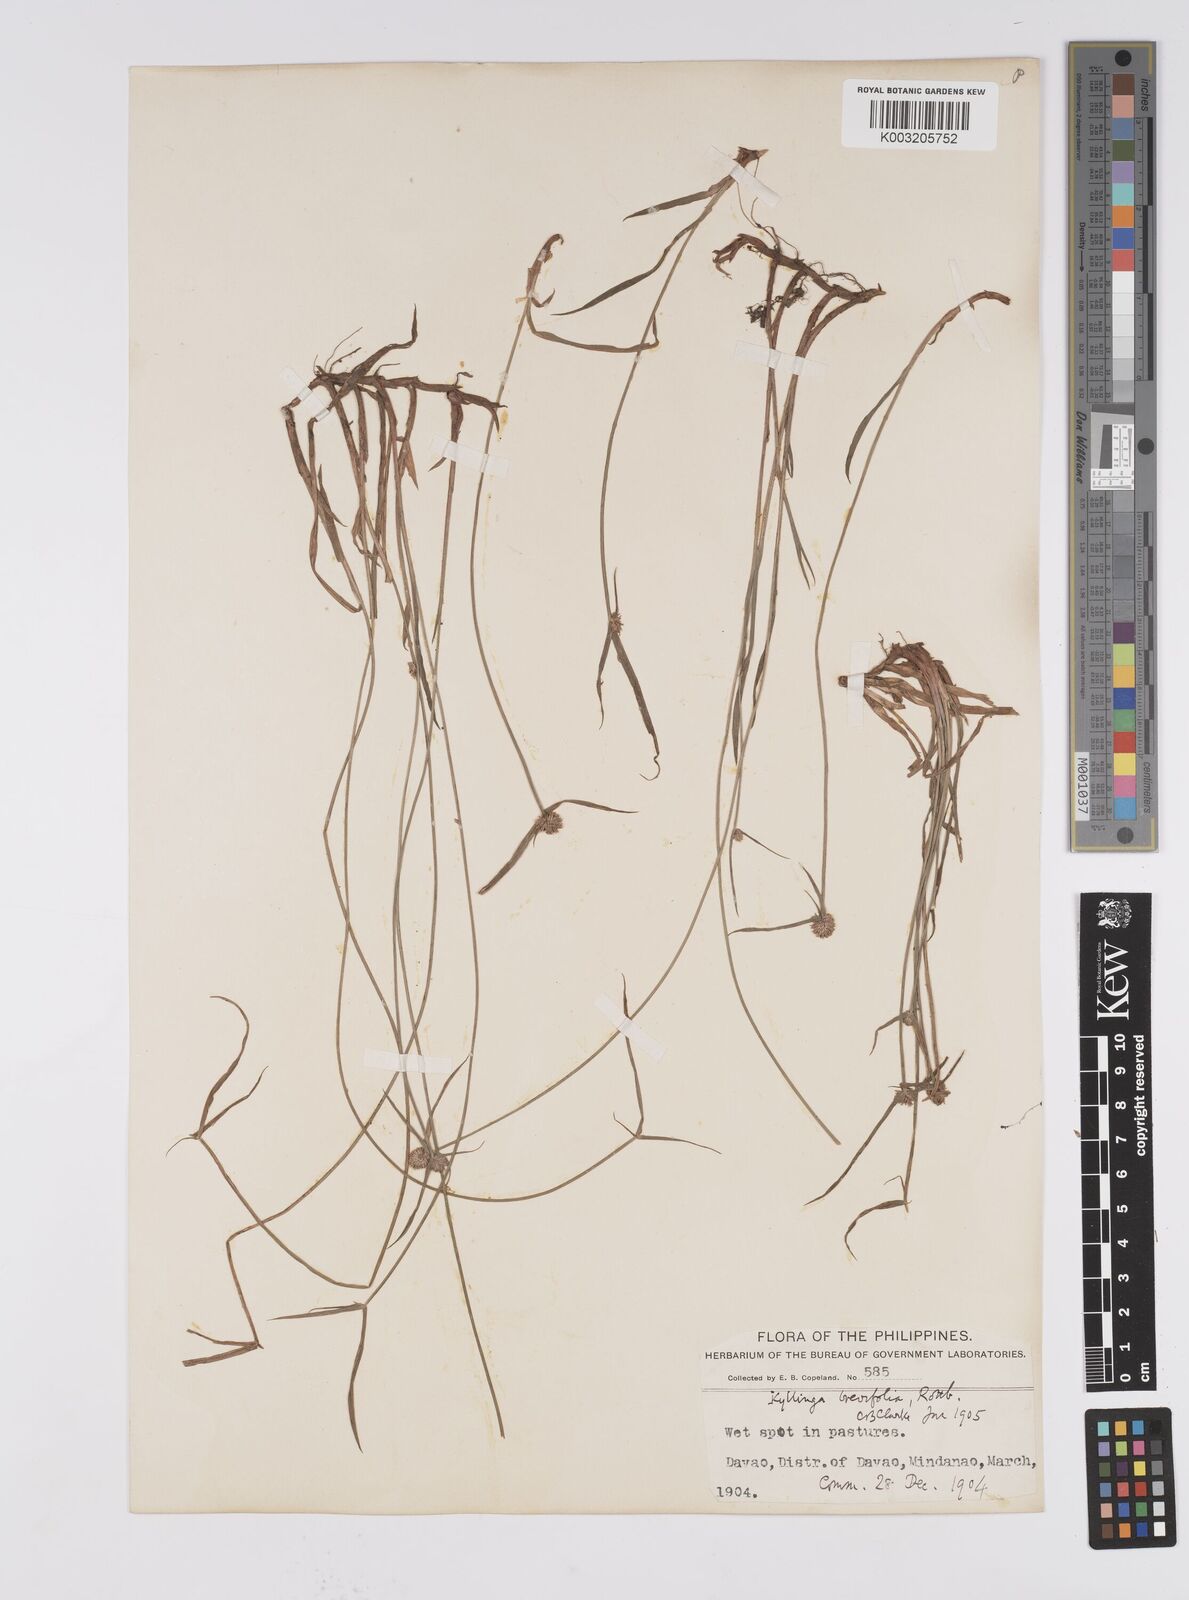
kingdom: Plantae
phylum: Tracheophyta
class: Liliopsida
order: Poales
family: Cyperaceae
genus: Cyperus
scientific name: Cyperus brevifolius
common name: Globe kyllinga
